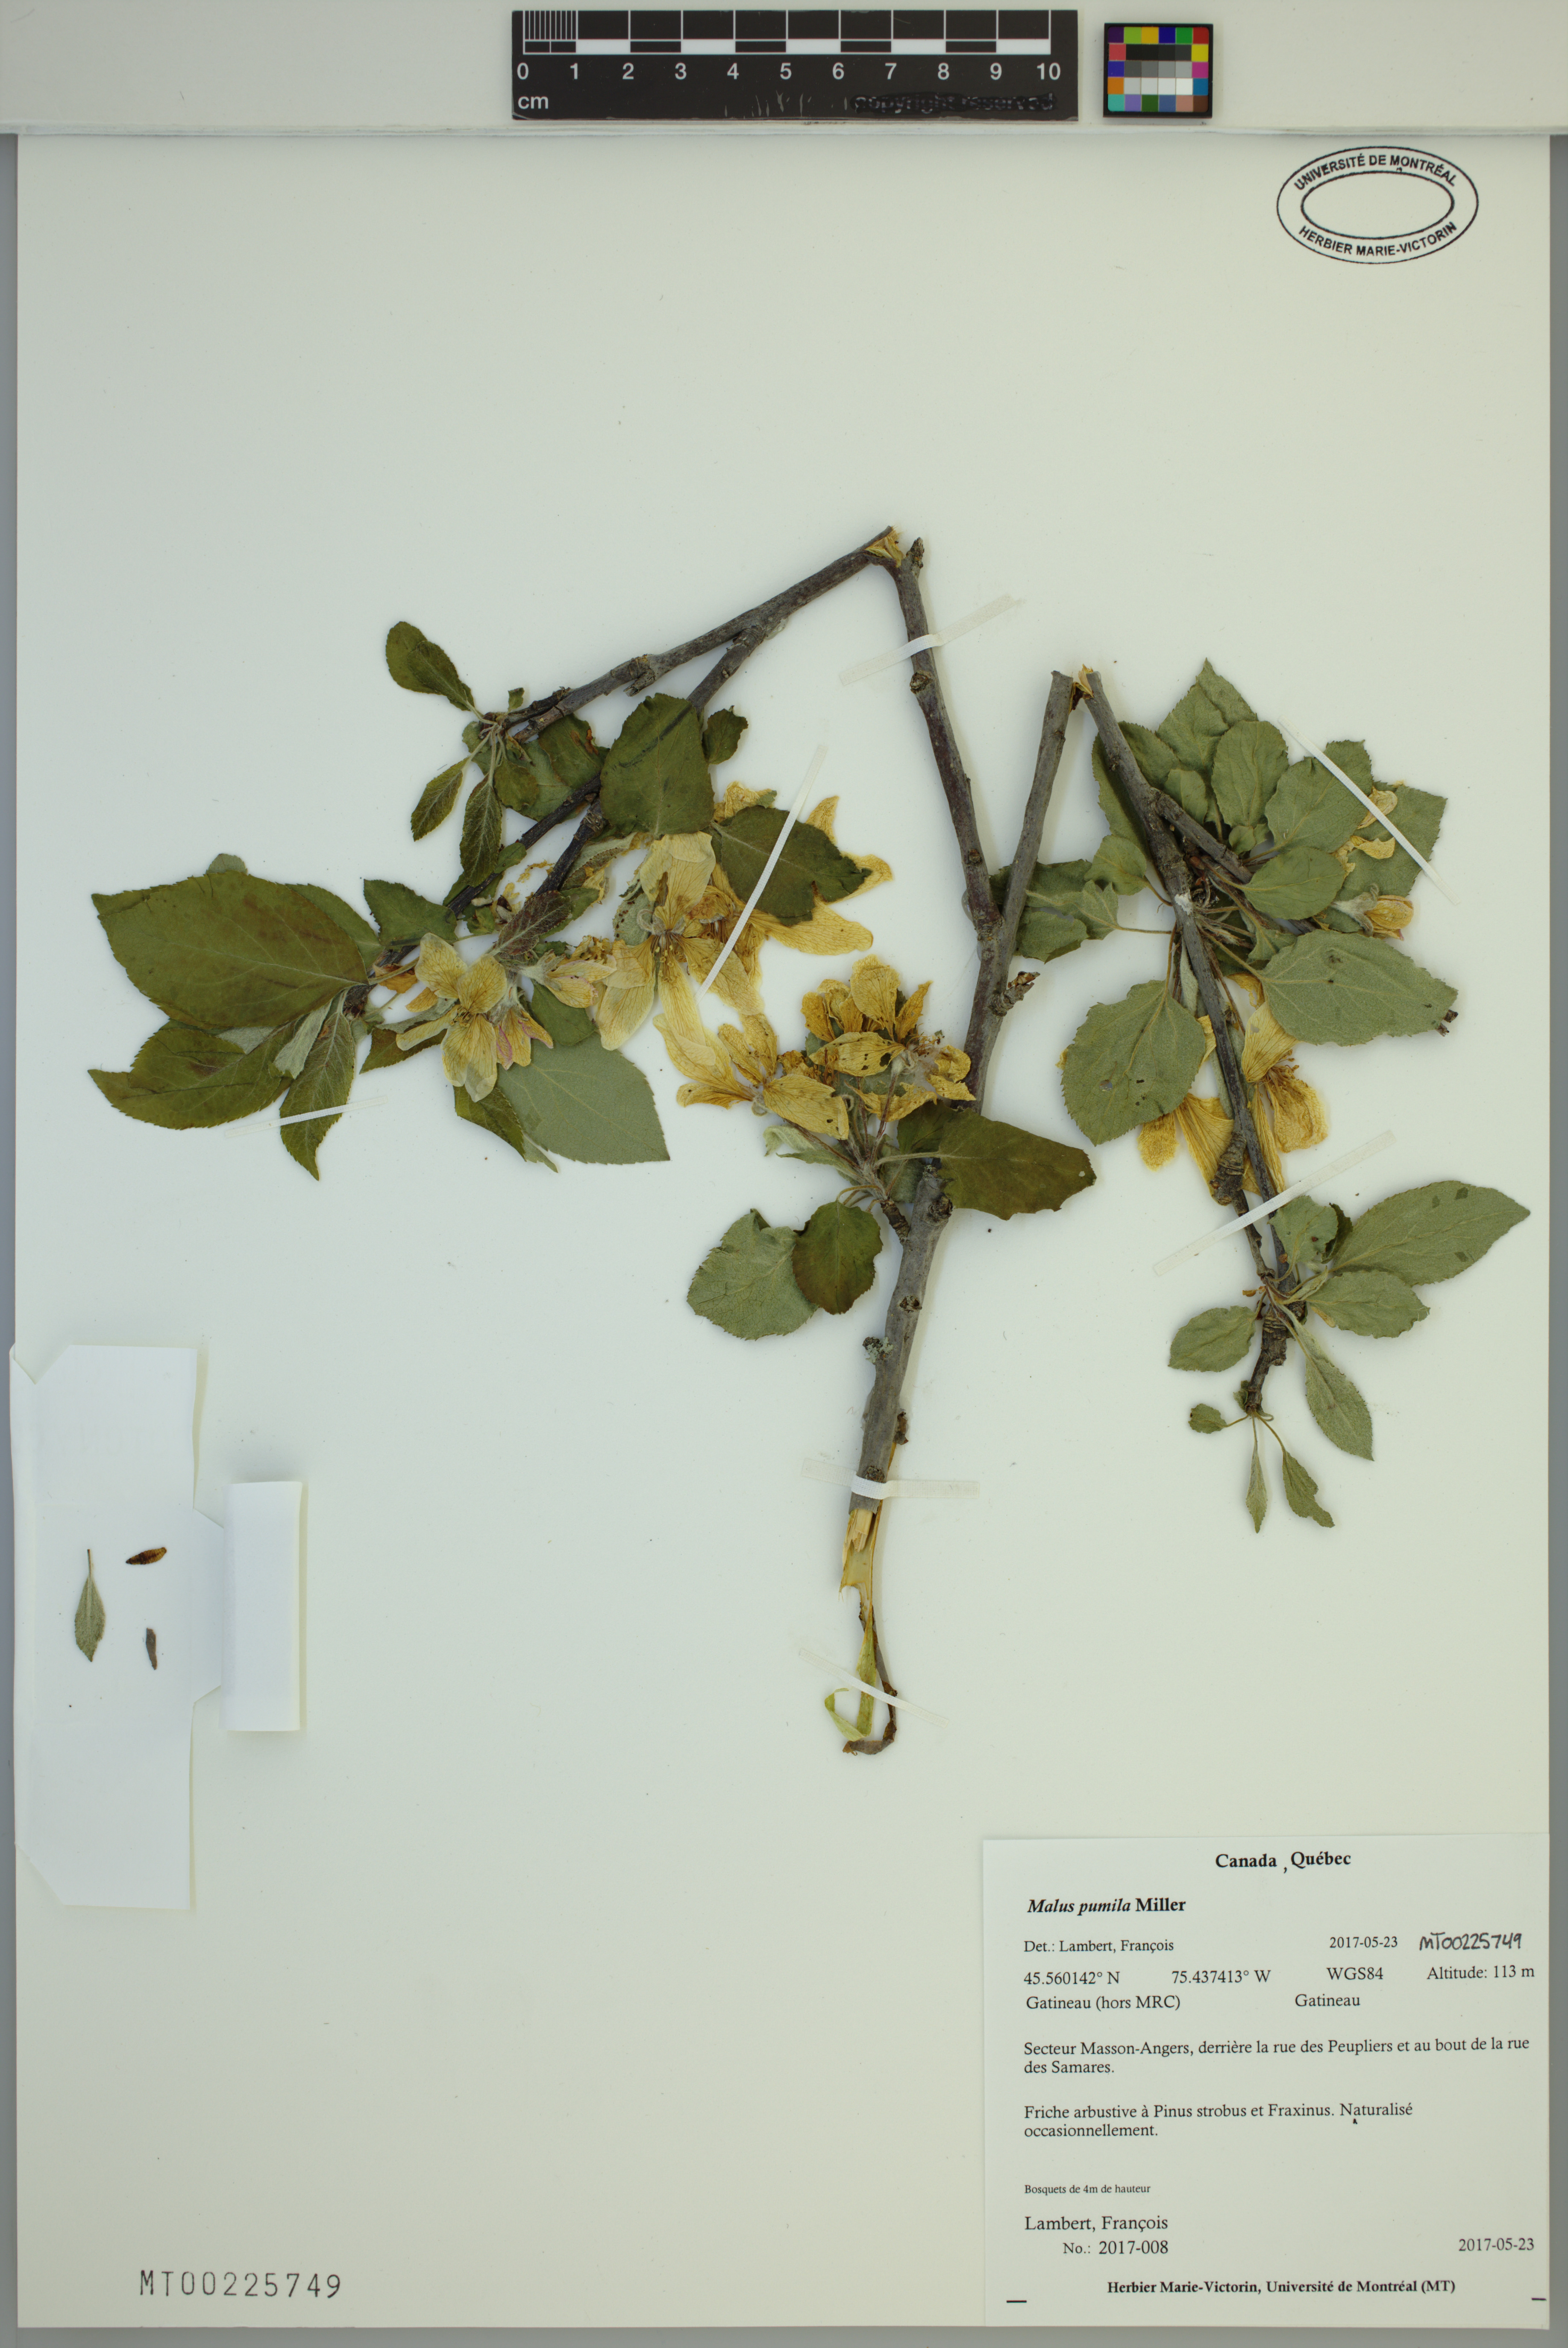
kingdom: Plantae
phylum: Tracheophyta
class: Magnoliopsida
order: Rosales
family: Rosaceae
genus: Malus
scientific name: Malus domestica
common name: Apple
